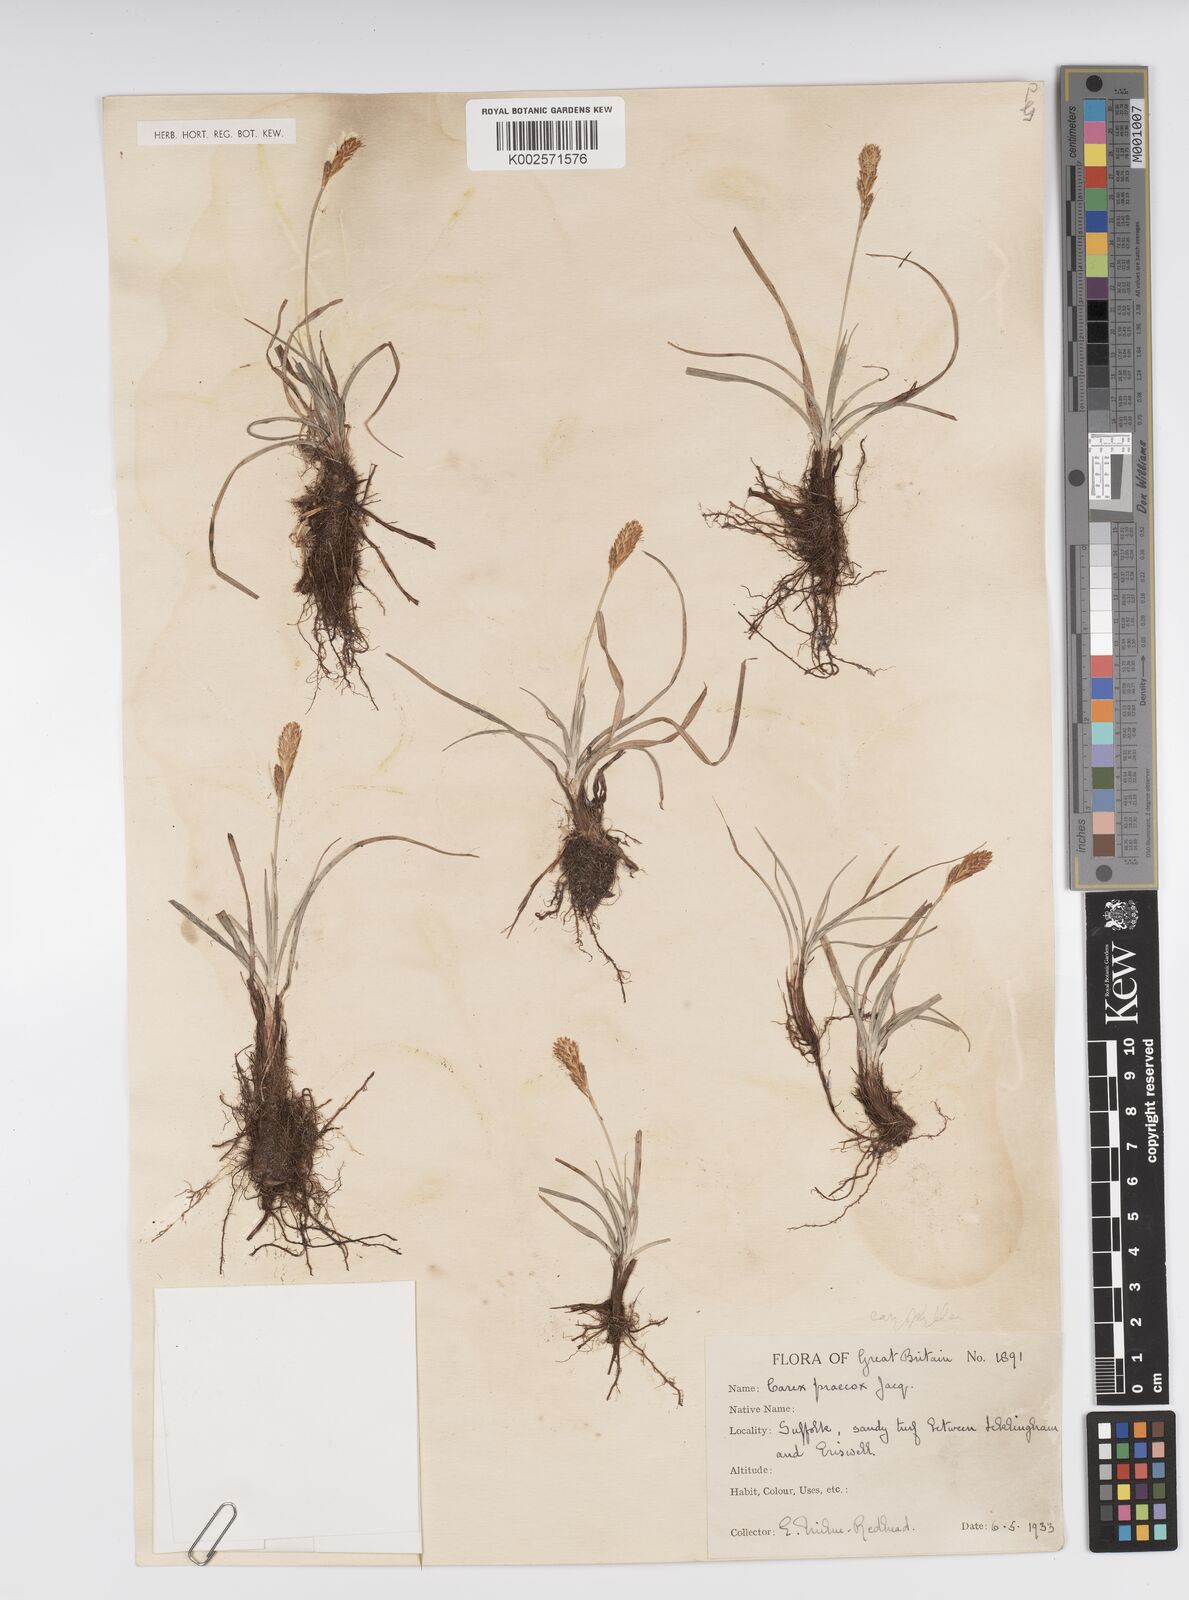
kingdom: Plantae
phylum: Tracheophyta
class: Liliopsida
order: Poales
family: Cyperaceae
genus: Carex
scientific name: Carex caryophyllea
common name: Spring sedge
